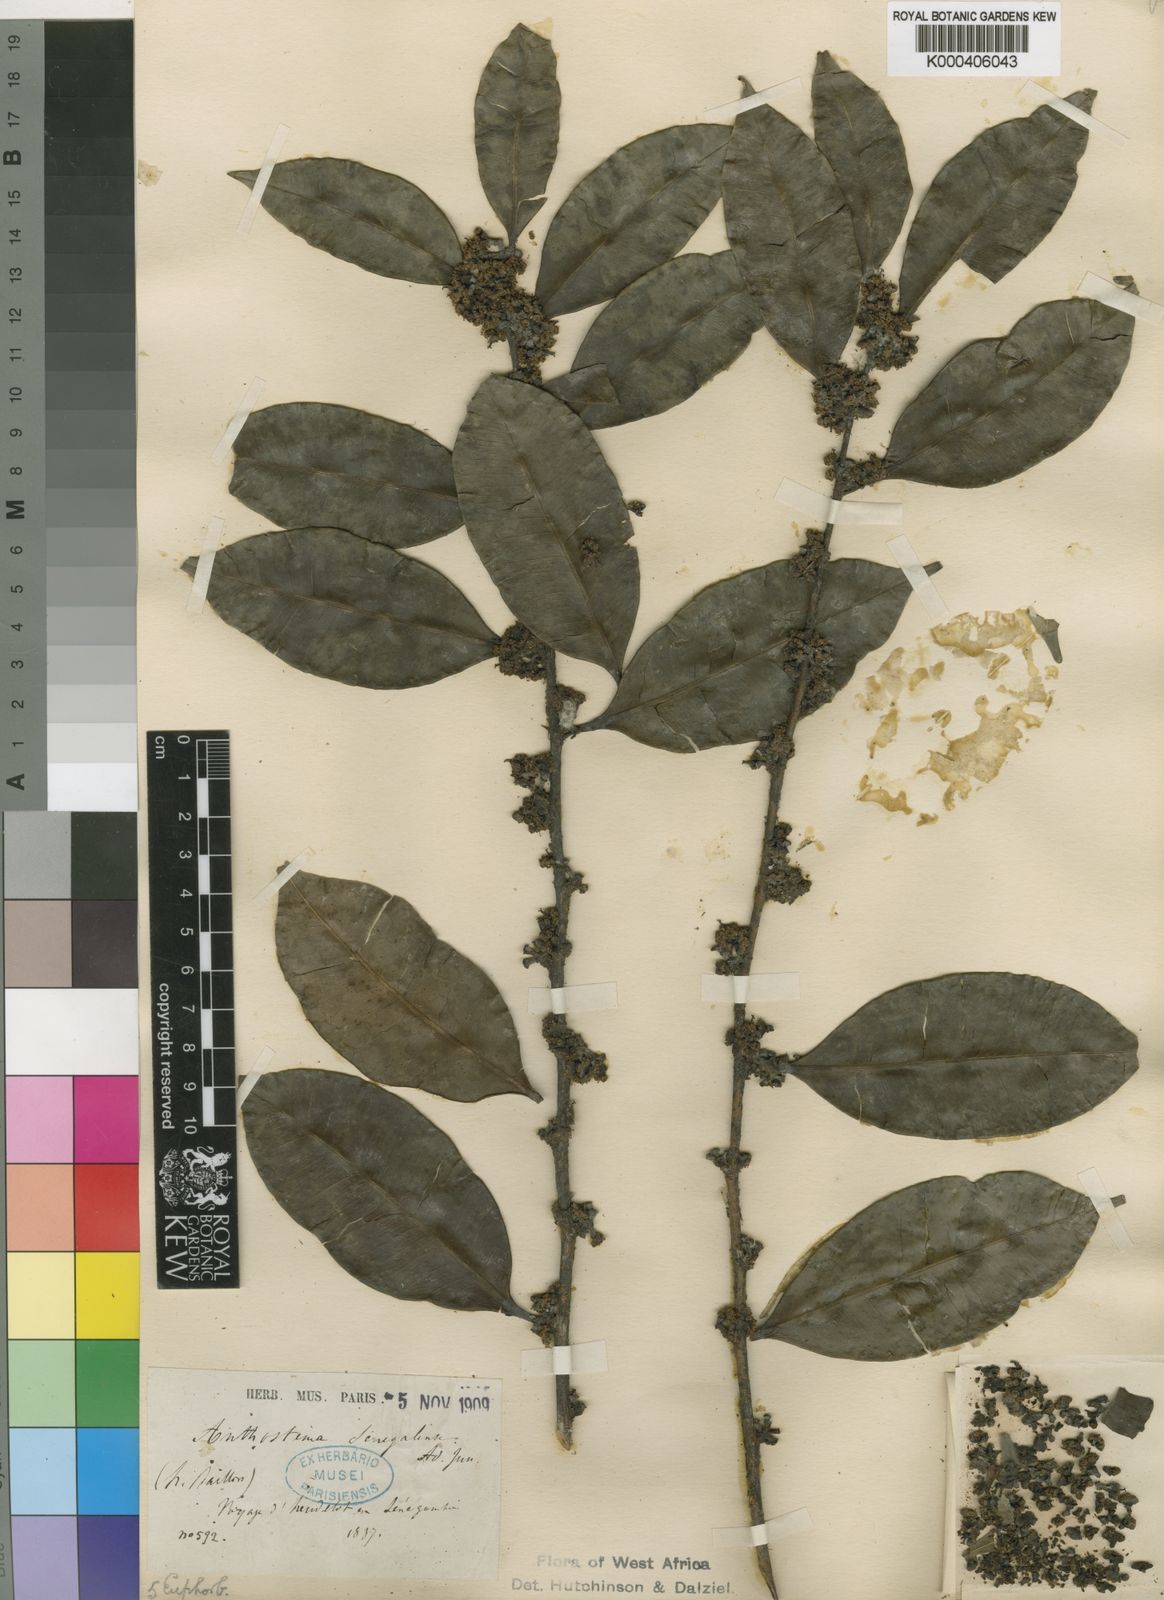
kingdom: Plantae
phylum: Tracheophyta
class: Magnoliopsida
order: Malpighiales
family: Euphorbiaceae
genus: Anthostema
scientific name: Anthostema senegalense
